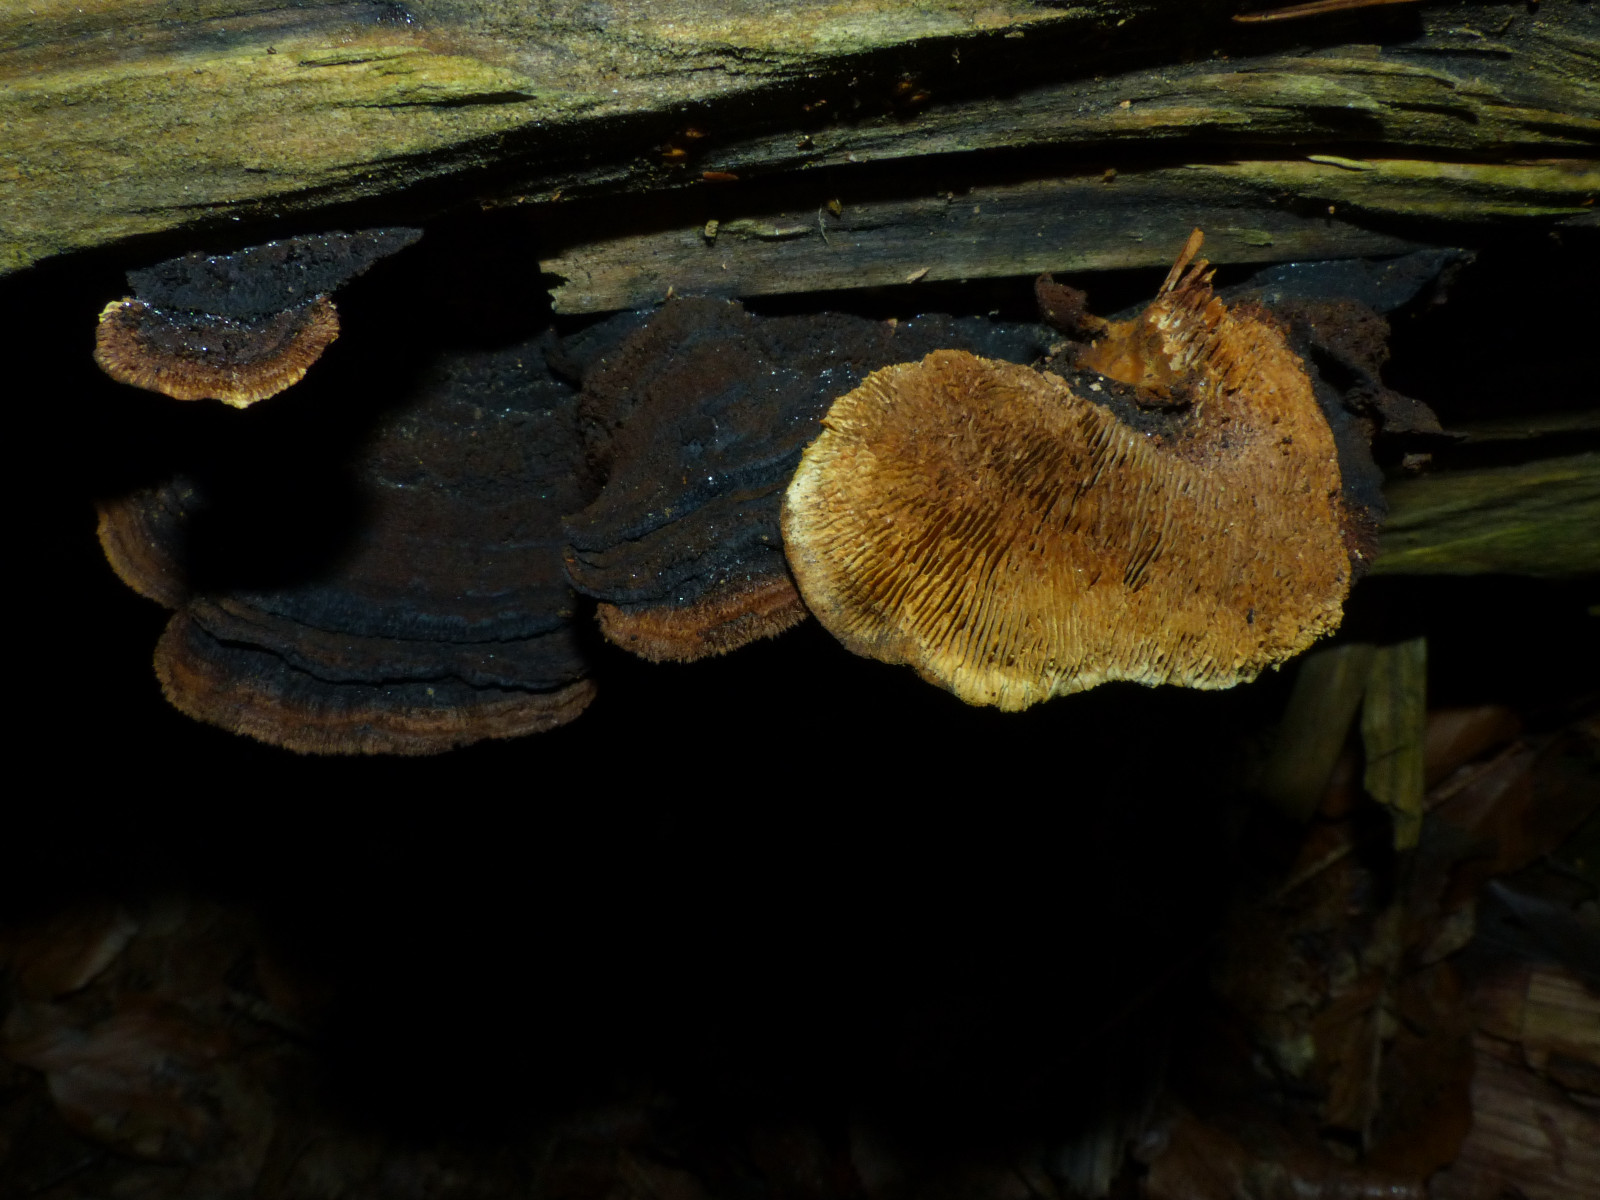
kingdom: Fungi
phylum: Basidiomycota
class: Agaricomycetes
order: Gloeophyllales
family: Gloeophyllaceae
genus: Gloeophyllum
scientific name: Gloeophyllum sepiarium
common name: fyrre-korkhat
